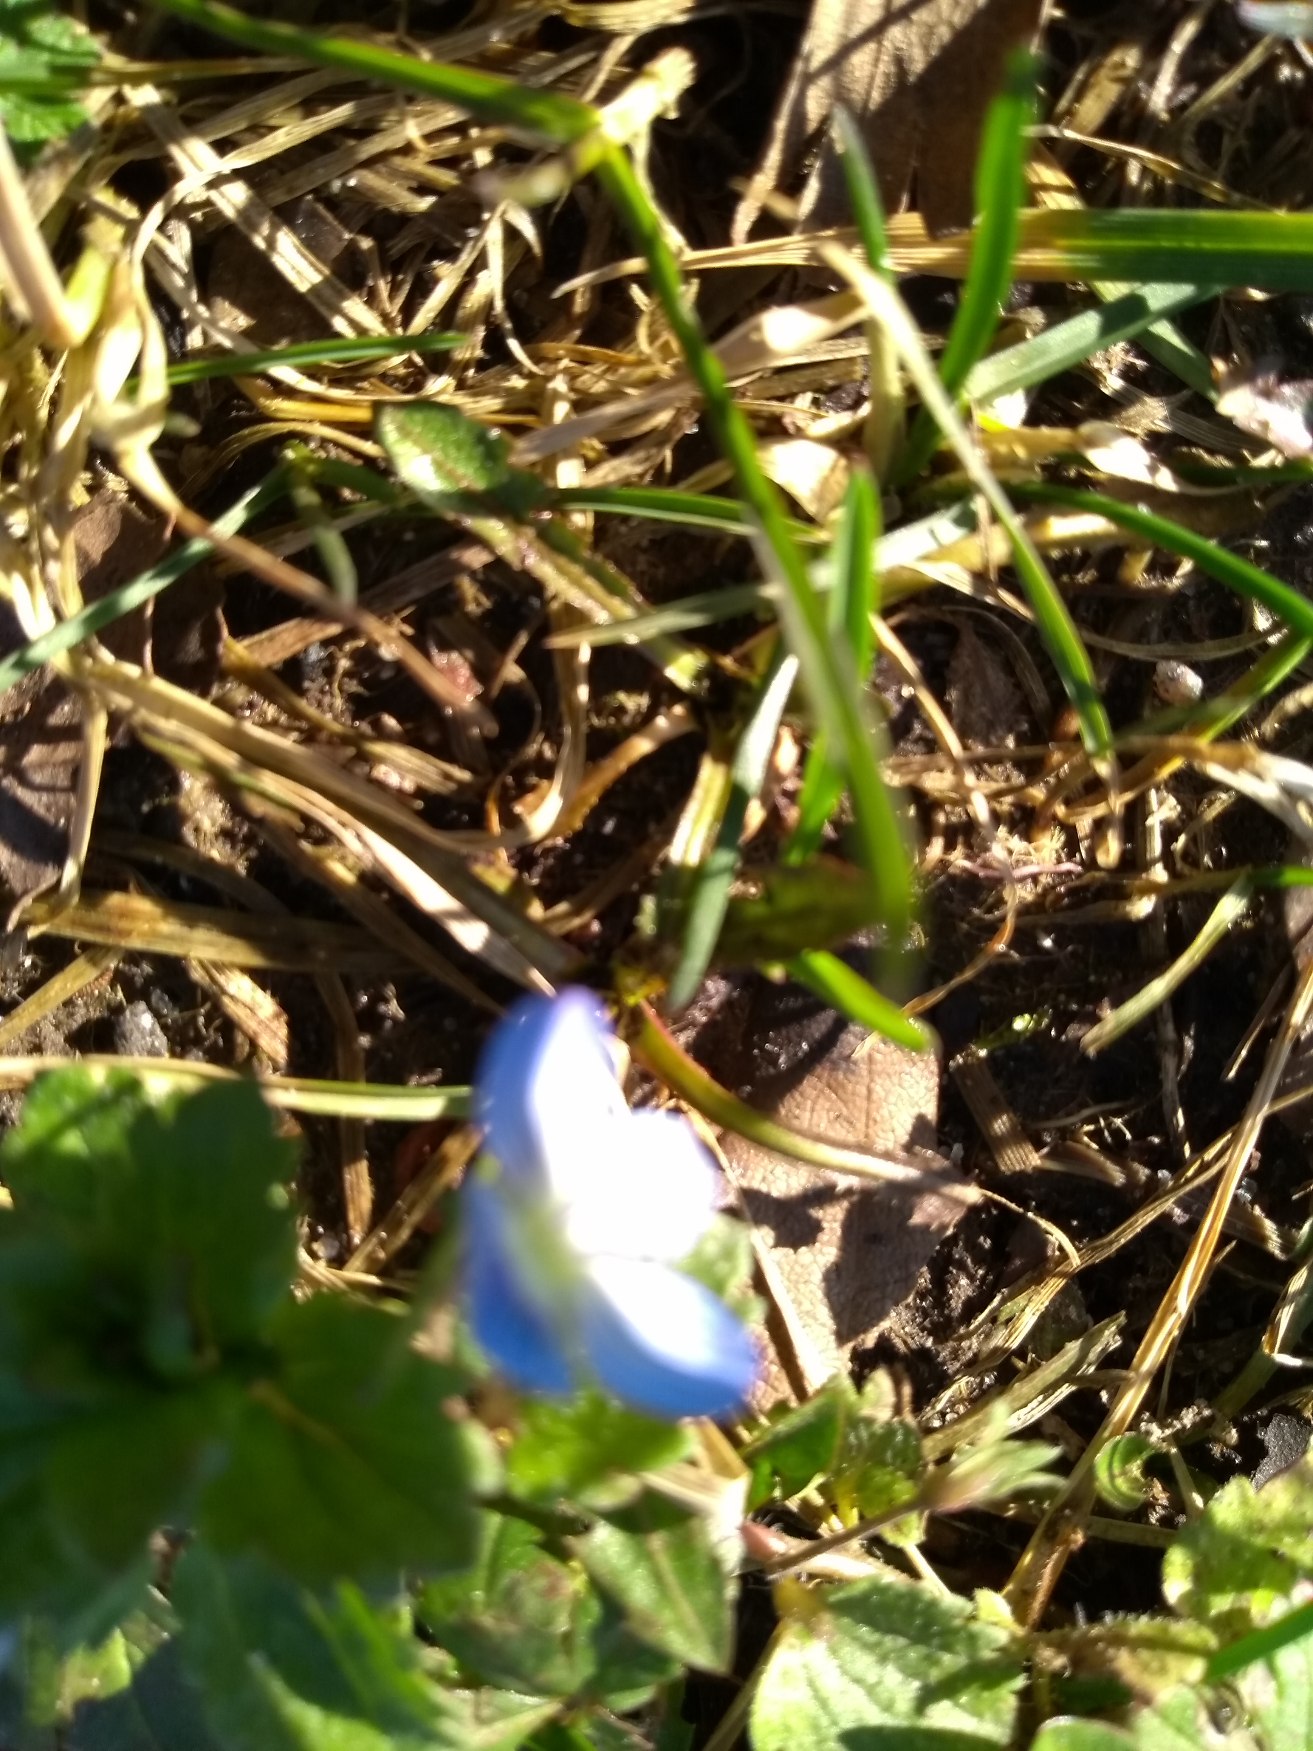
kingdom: Plantae
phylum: Tracheophyta
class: Magnoliopsida
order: Lamiales
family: Plantaginaceae
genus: Veronica
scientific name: Veronica persica
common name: Storkronet ærenpris
